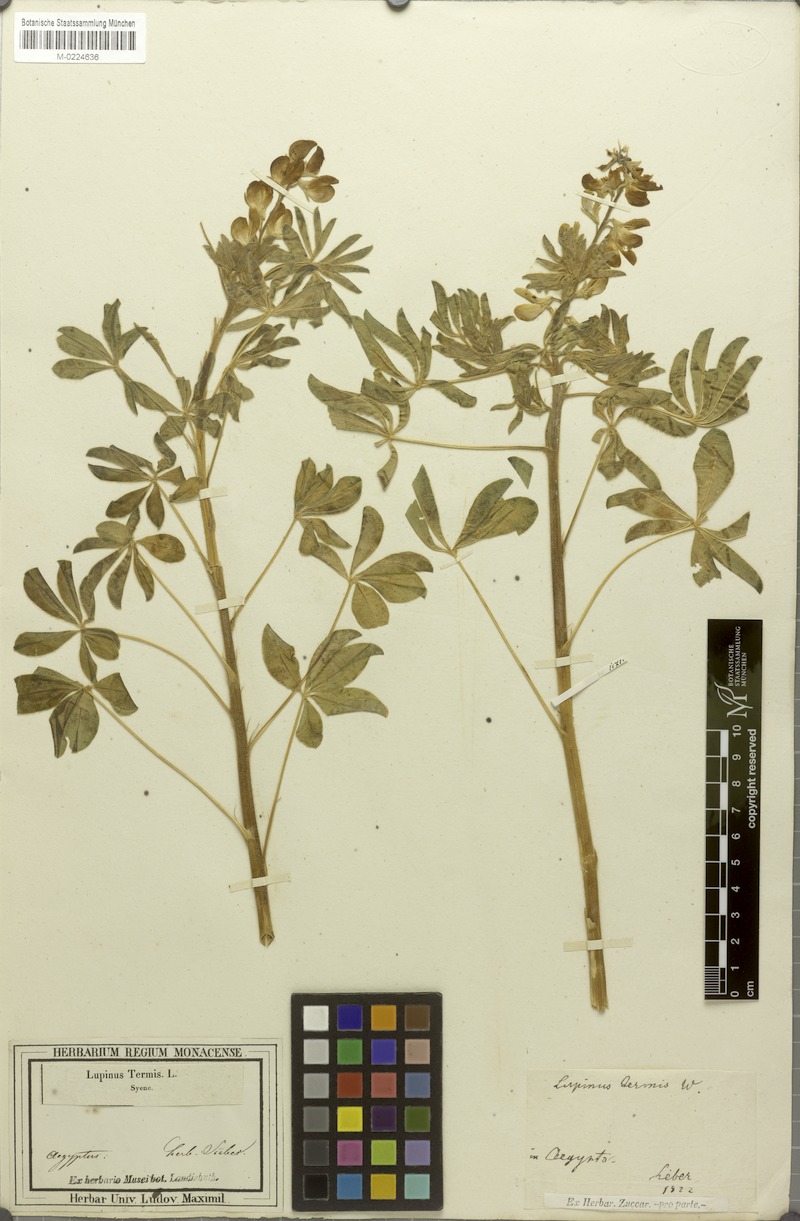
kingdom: Plantae
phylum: Tracheophyta
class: Magnoliopsida
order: Fabales
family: Fabaceae
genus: Lupinus
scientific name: Lupinus albus
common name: White lupin
